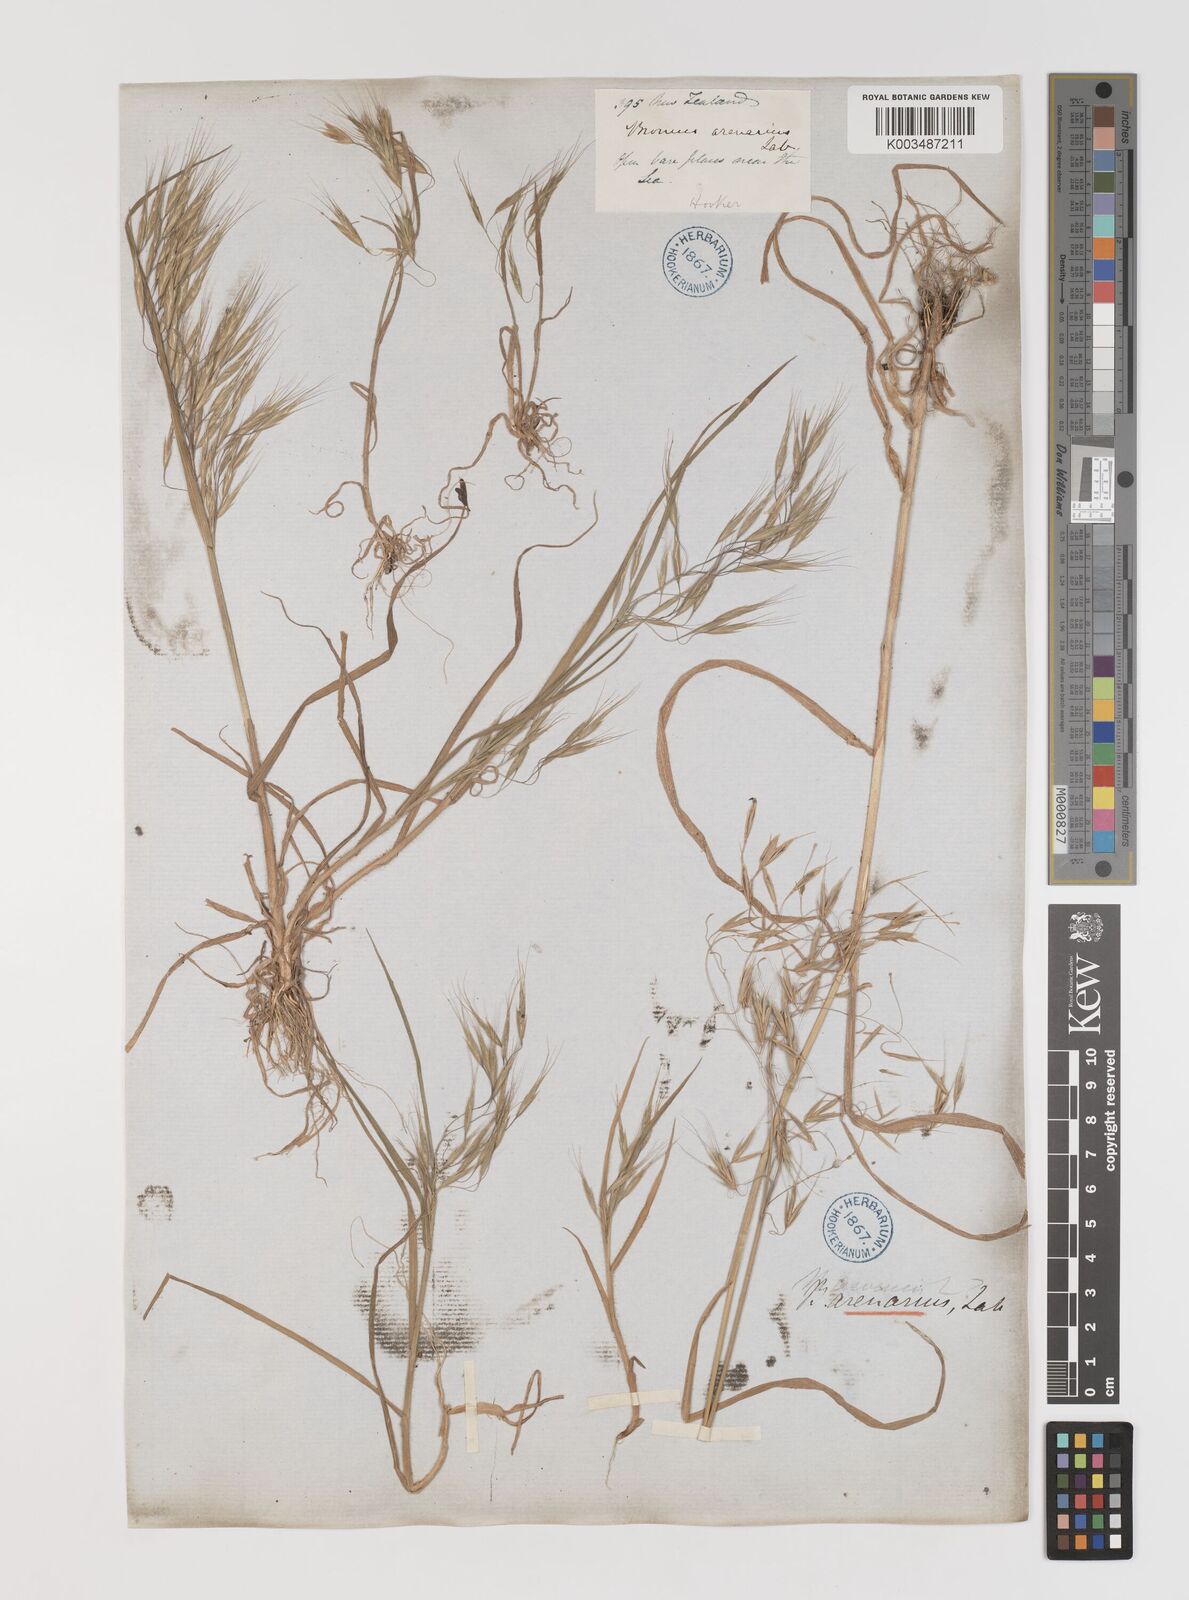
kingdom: Plantae
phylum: Tracheophyta
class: Liliopsida
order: Poales
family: Poaceae
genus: Bromus
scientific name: Bromus arenarius
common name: Australian brome
